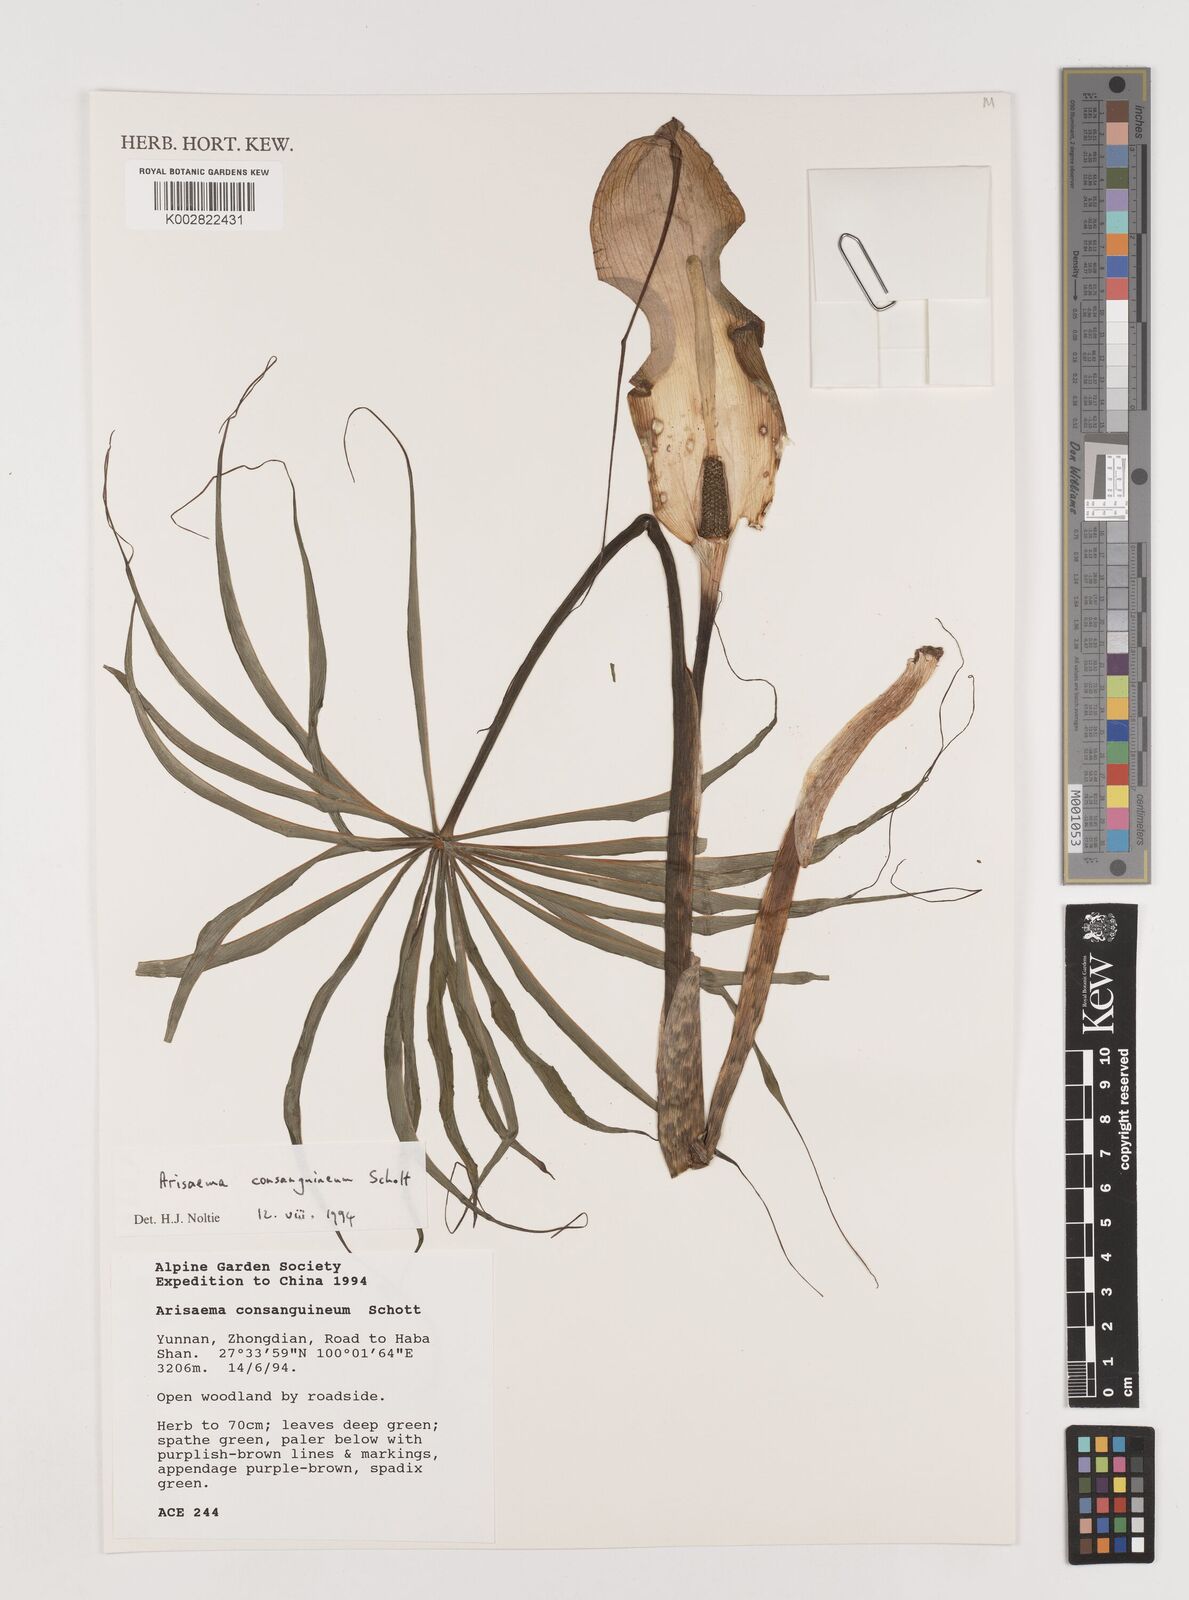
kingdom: Plantae
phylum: Tracheophyta
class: Liliopsida
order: Alismatales
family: Araceae
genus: Arisaema
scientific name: Arisaema erubescens
